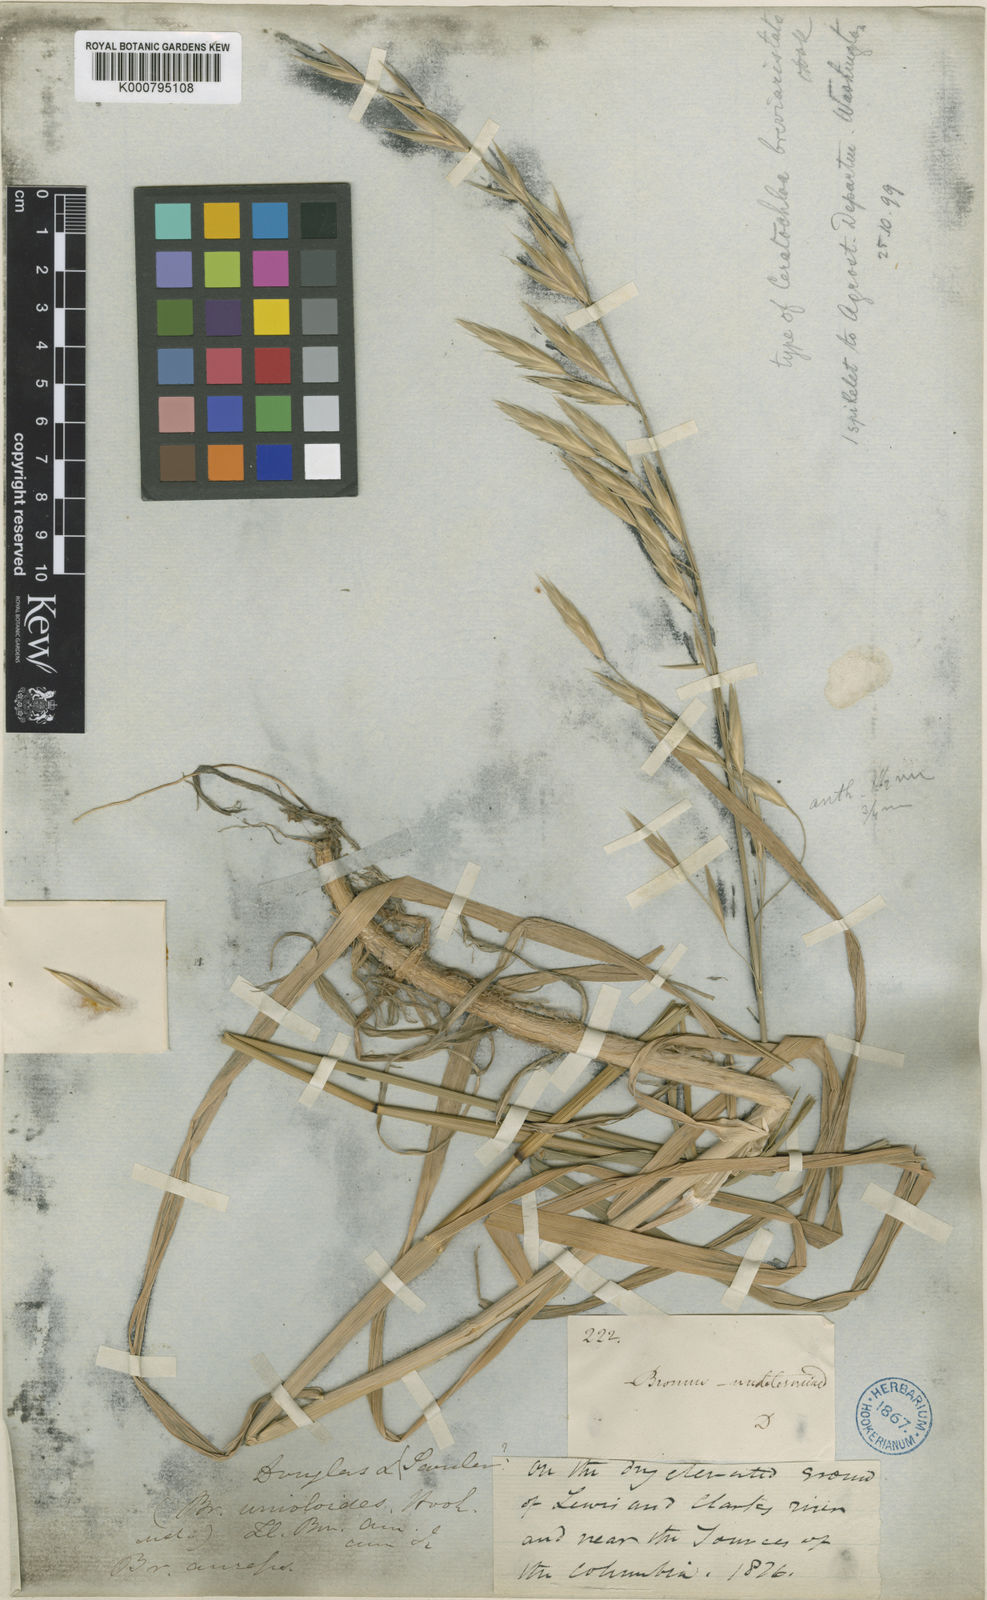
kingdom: Plantae
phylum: Tracheophyta
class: Liliopsida
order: Poales
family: Poaceae
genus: Bromus
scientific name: Bromus catharticus
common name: Rescuegrass
